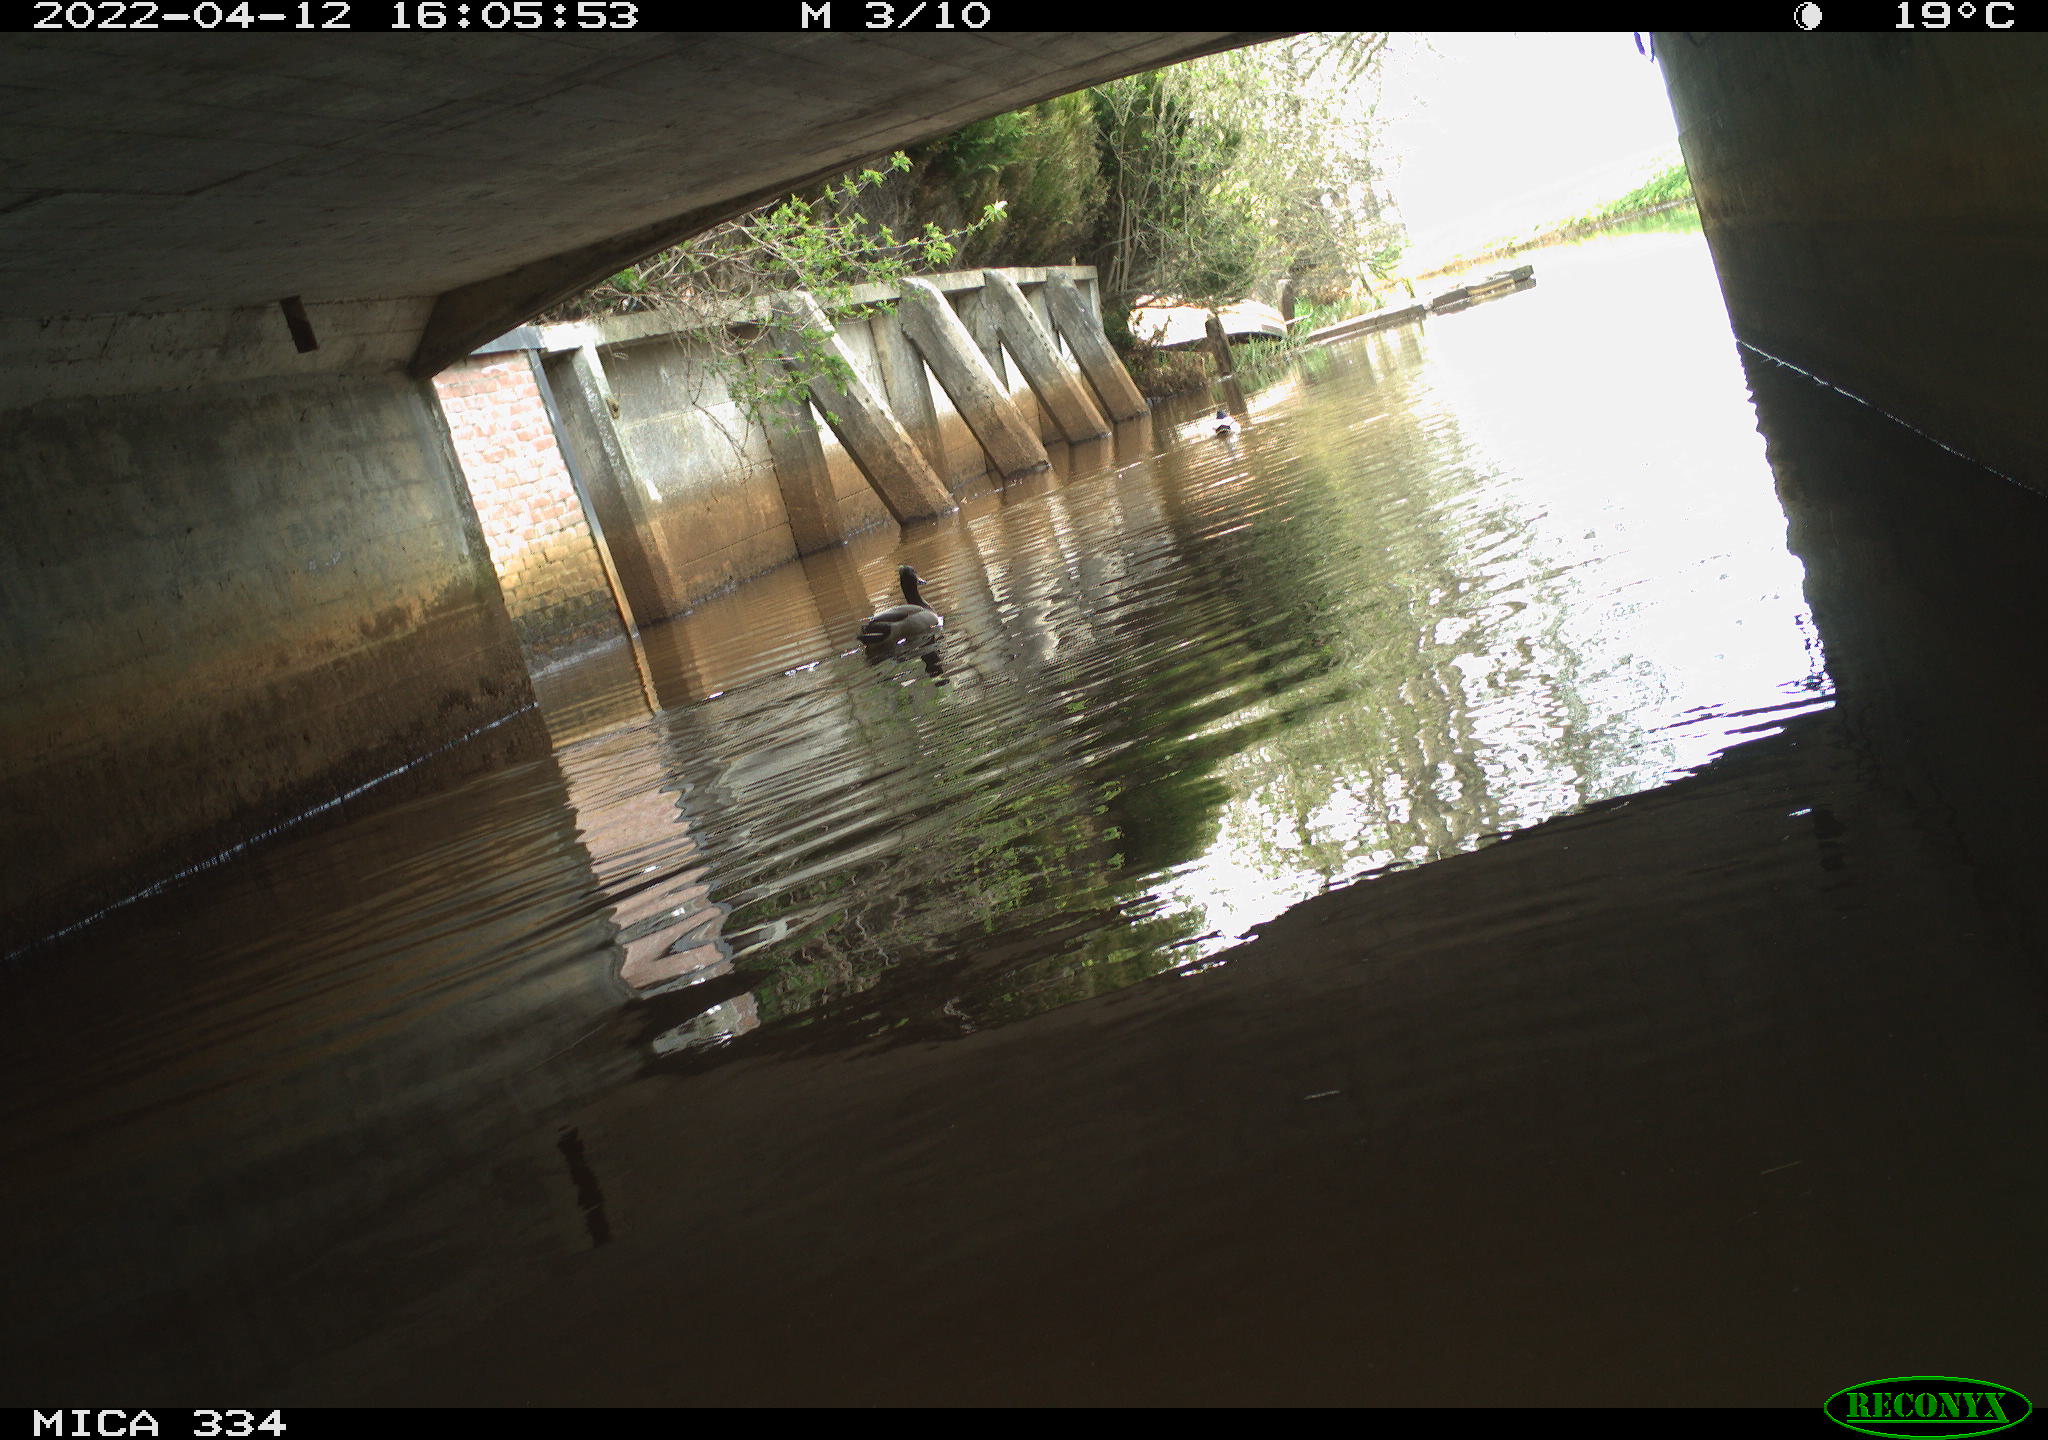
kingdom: Animalia
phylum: Chordata
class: Aves
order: Anseriformes
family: Anatidae
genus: Anas
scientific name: Anas platyrhynchos
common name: Mallard
